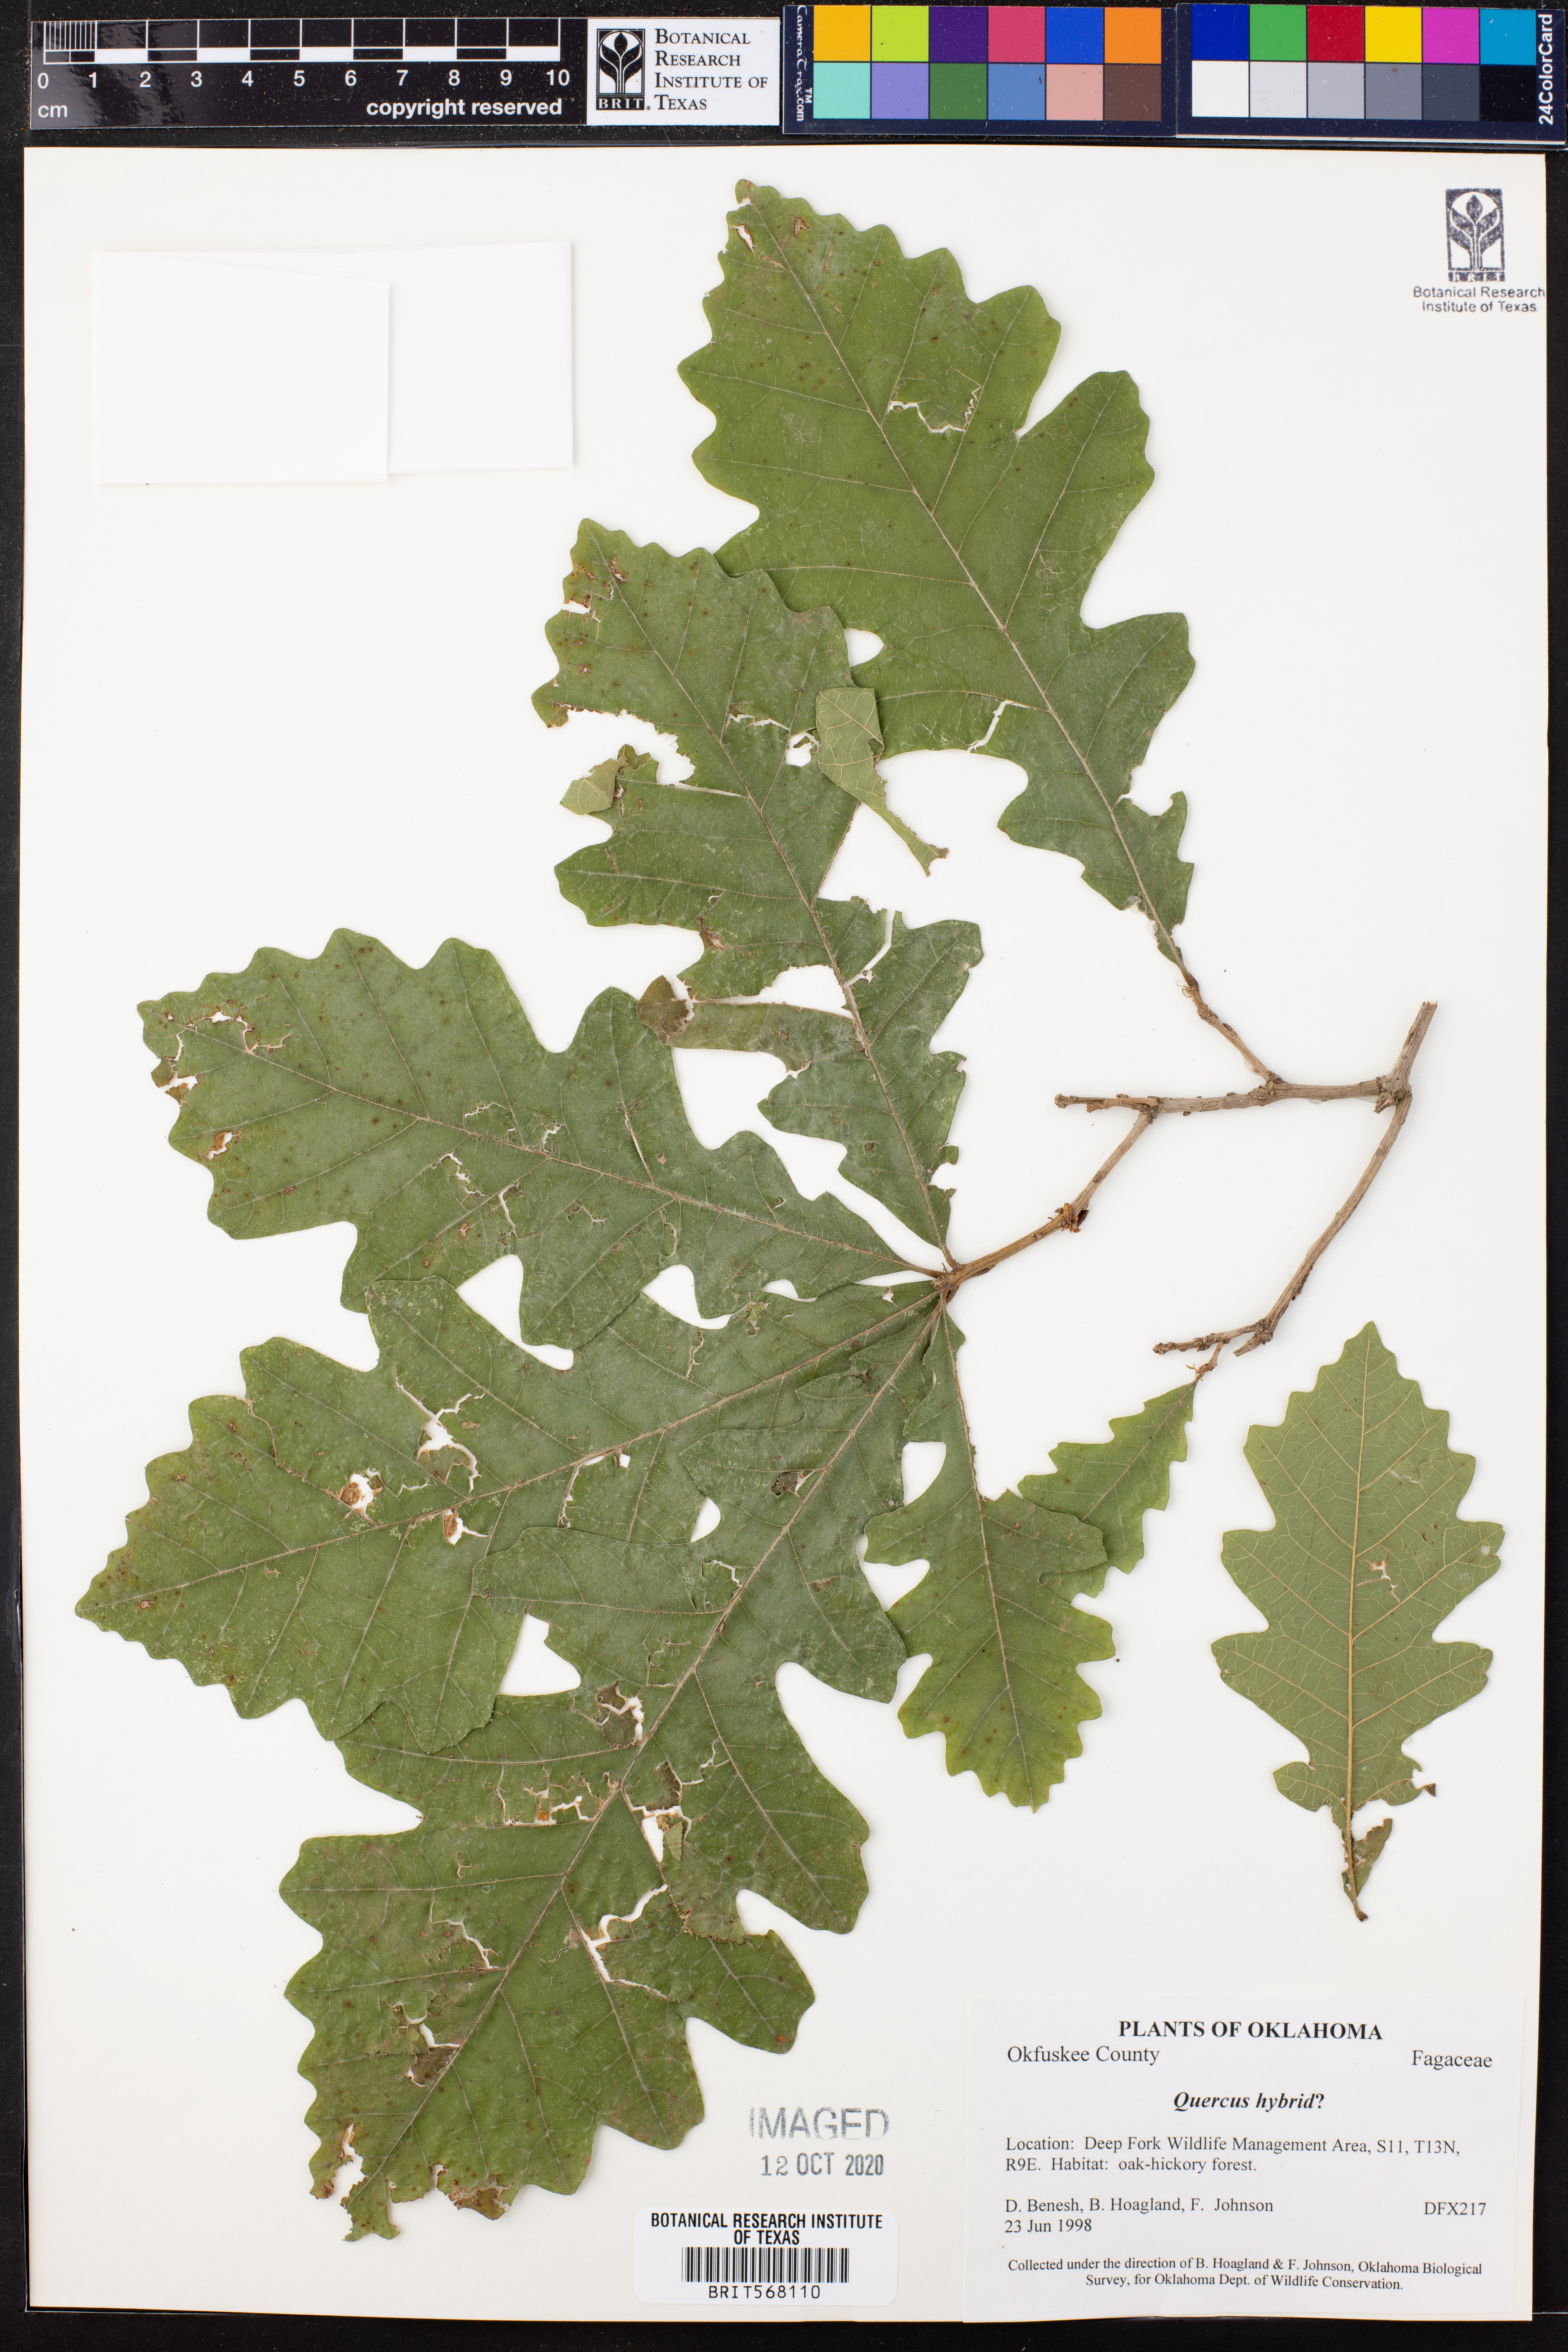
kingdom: Plantae
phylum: Tracheophyta
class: Magnoliopsida
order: Fagales
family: Fagaceae
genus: Quercus
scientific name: Quercus muehlenbergii
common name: Chinkapin oak
